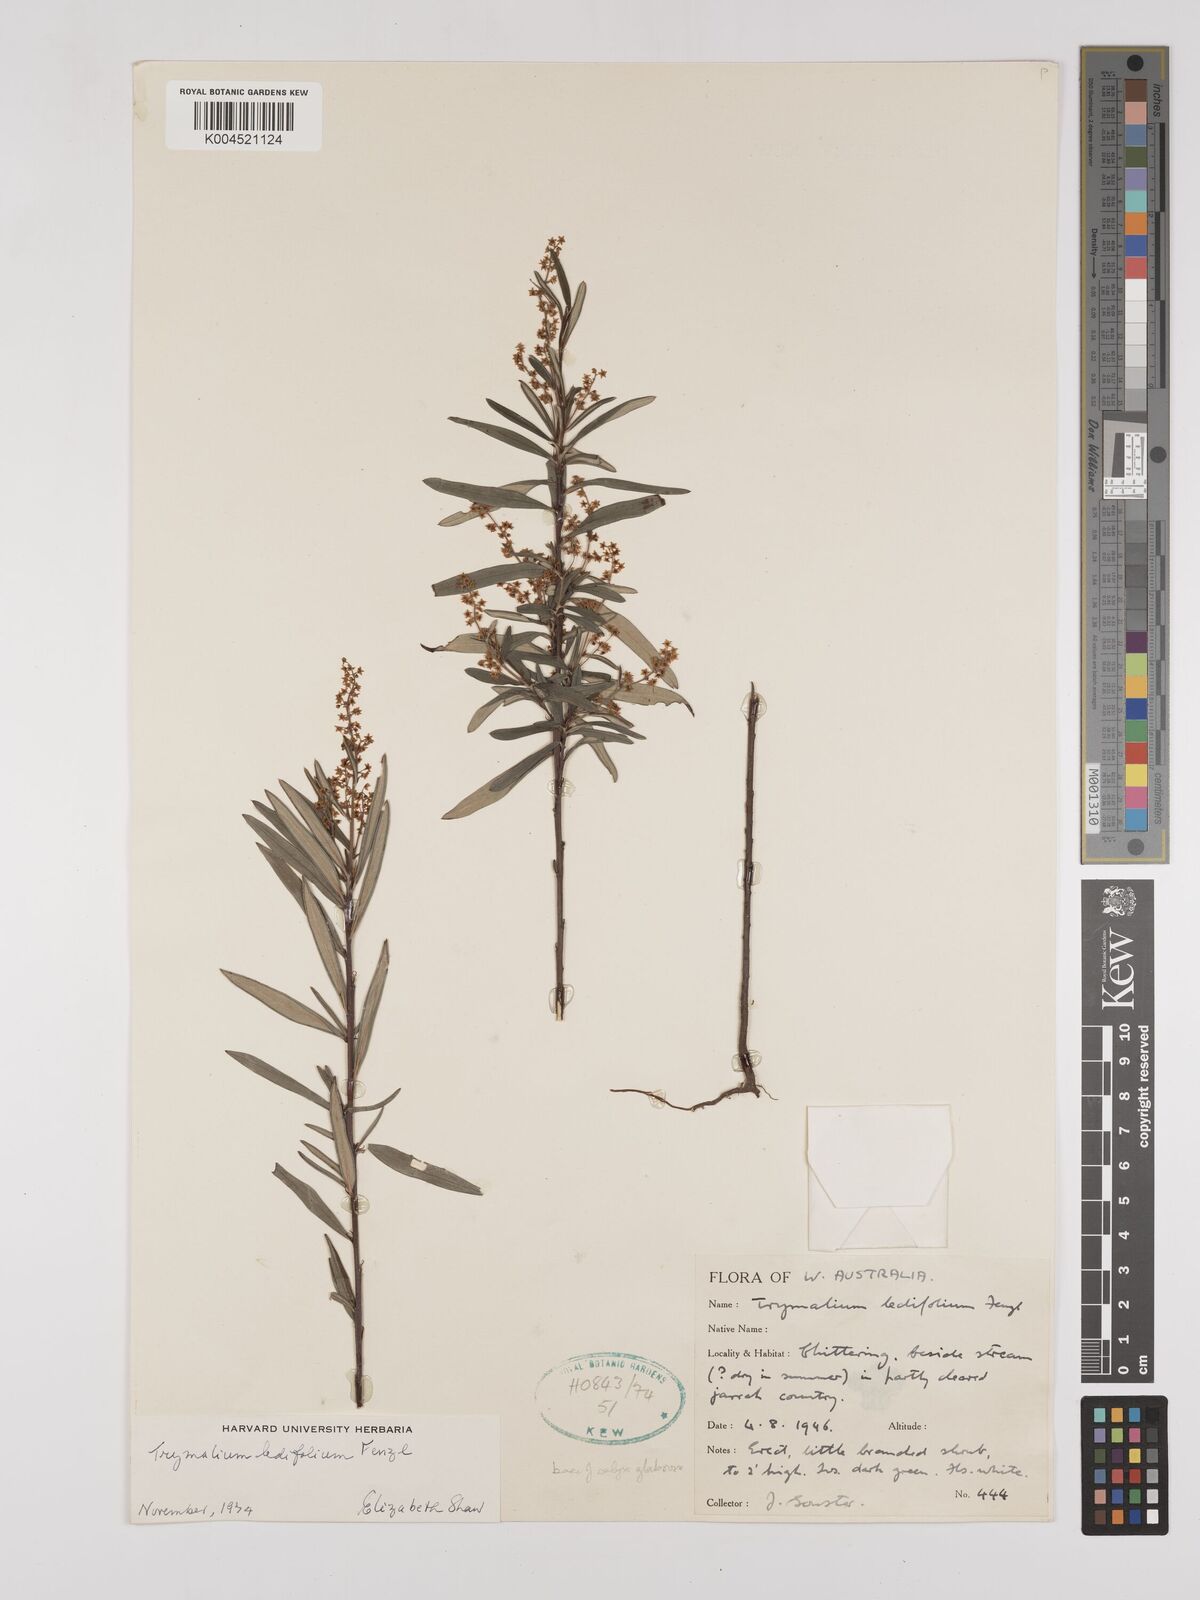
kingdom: Plantae
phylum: Tracheophyta
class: Magnoliopsida
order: Rosales
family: Rhamnaceae
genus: Trymalium
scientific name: Trymalium ledifolium
